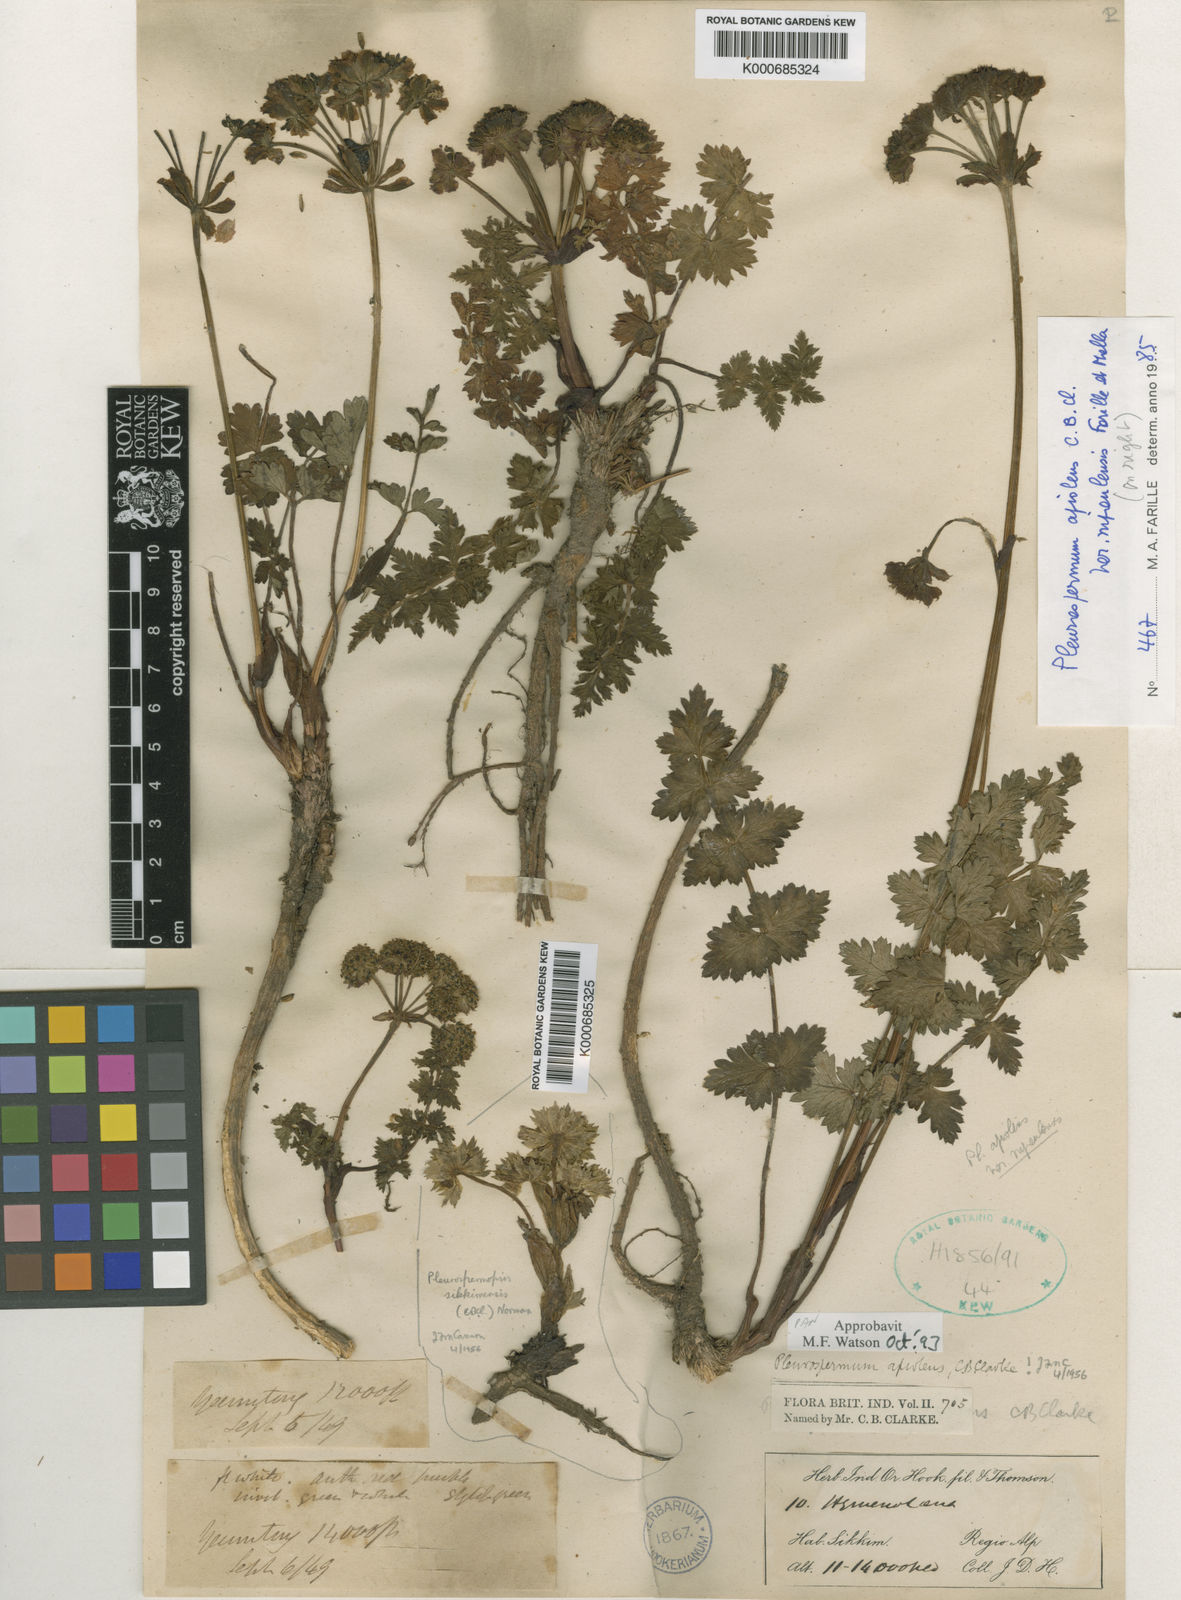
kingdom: Plantae
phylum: Tracheophyta
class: Magnoliopsida
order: Apiales
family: Apiaceae
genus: Pleurospermopsis
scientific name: Pleurospermopsis sikkimensis
